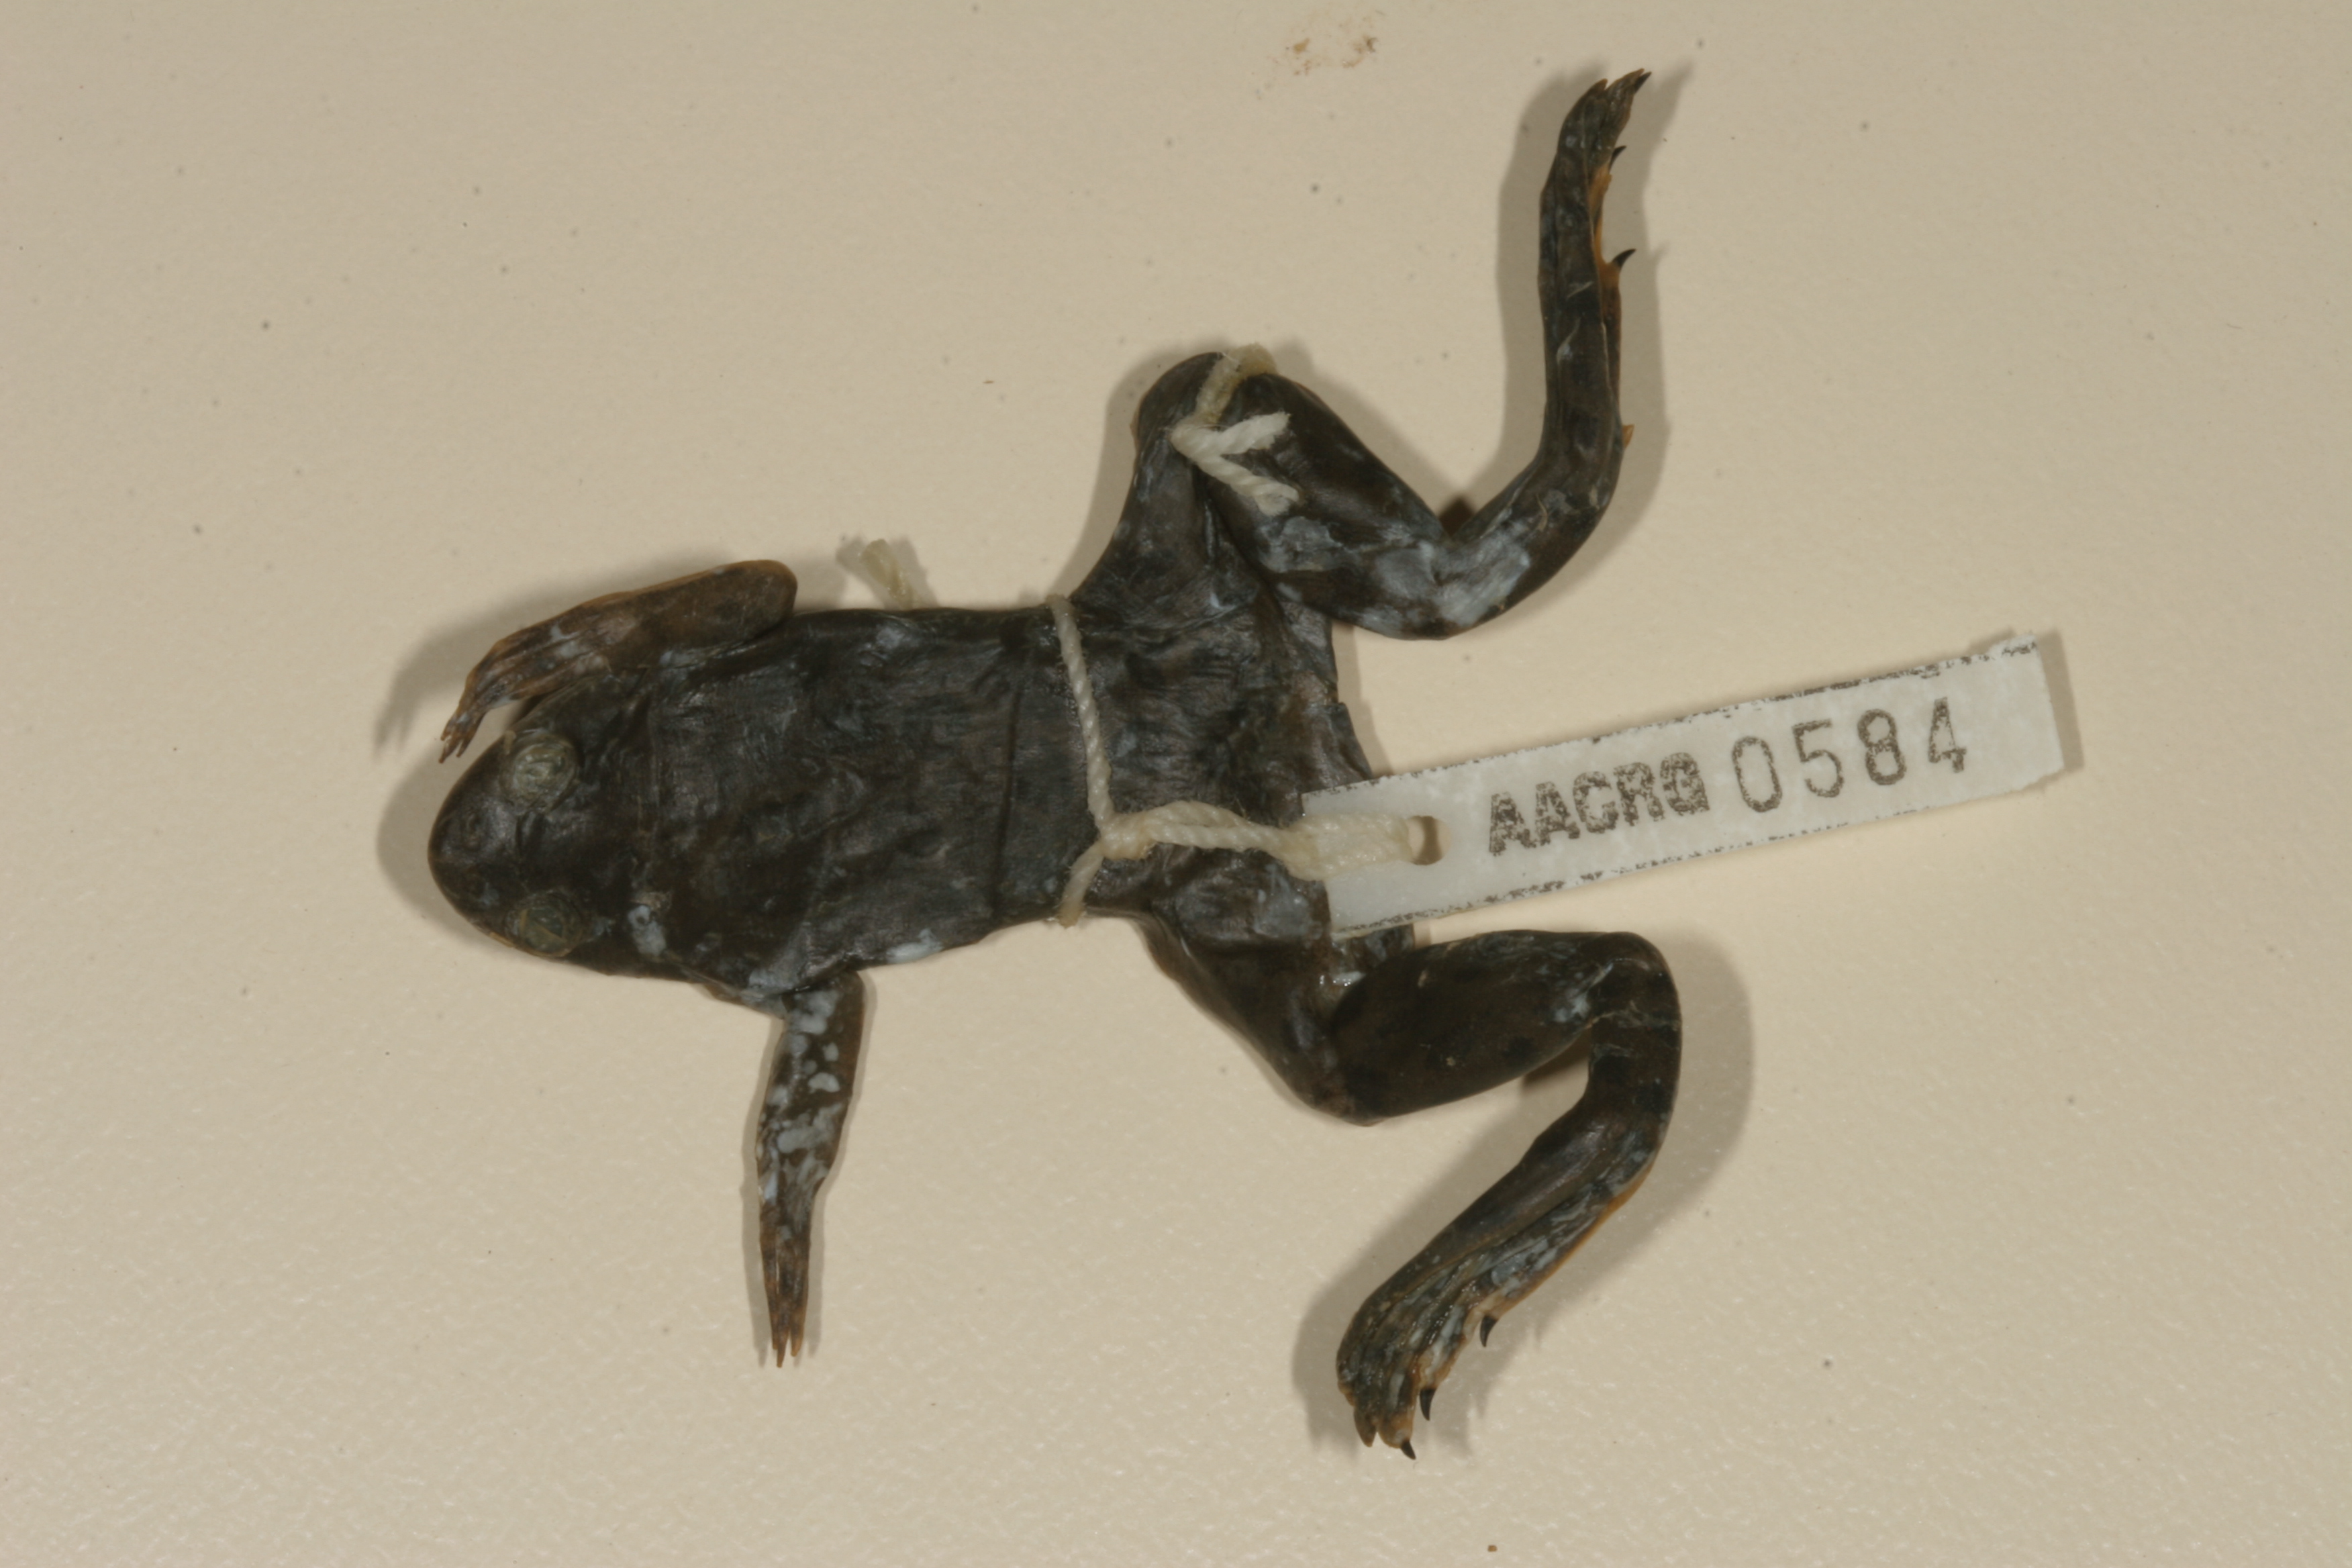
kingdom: Animalia
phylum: Chordata
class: Amphibia
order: Anura
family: Pipidae
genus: Xenopus
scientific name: Xenopus muelleri
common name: Muller's clawed frog
